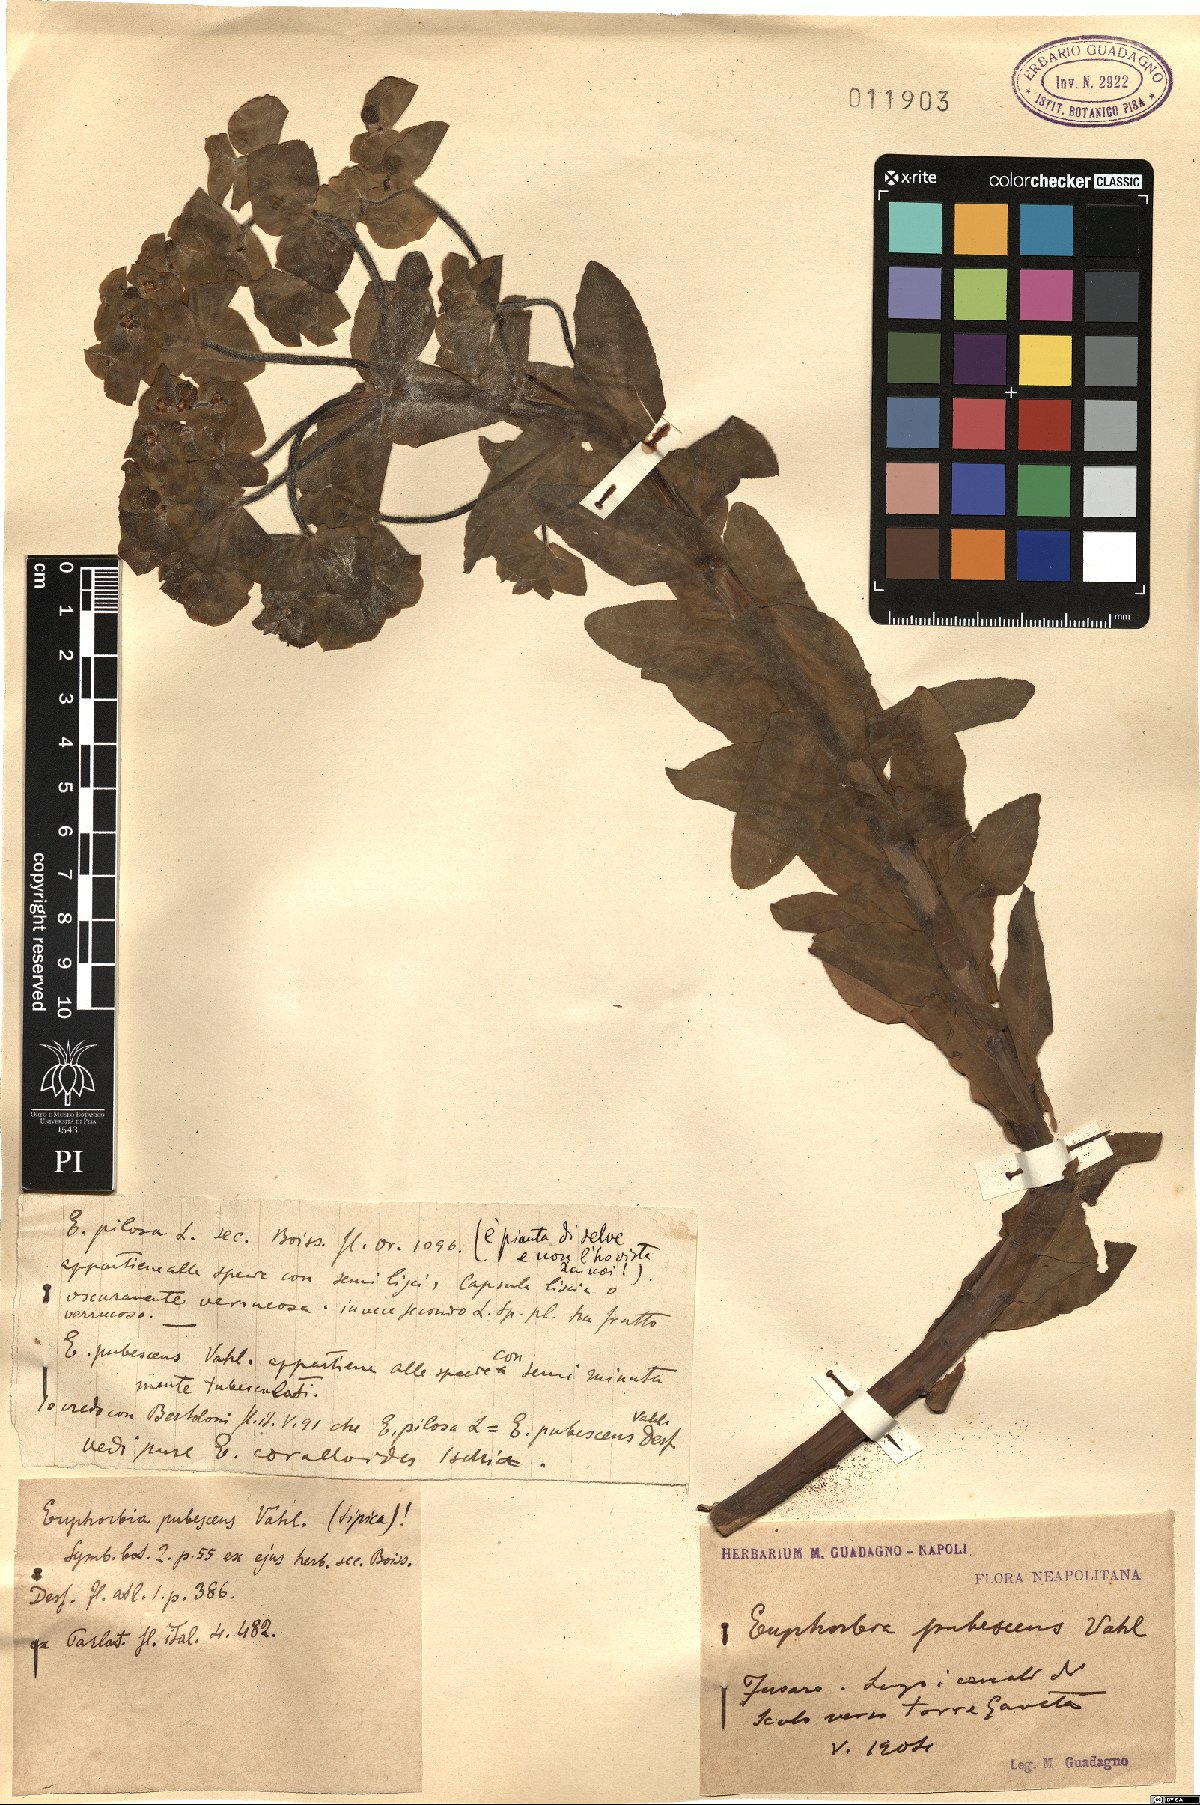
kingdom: Plantae
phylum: Tracheophyta
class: Magnoliopsida
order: Malpighiales
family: Euphorbiaceae
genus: Euphorbia
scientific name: Euphorbia hirsuta
